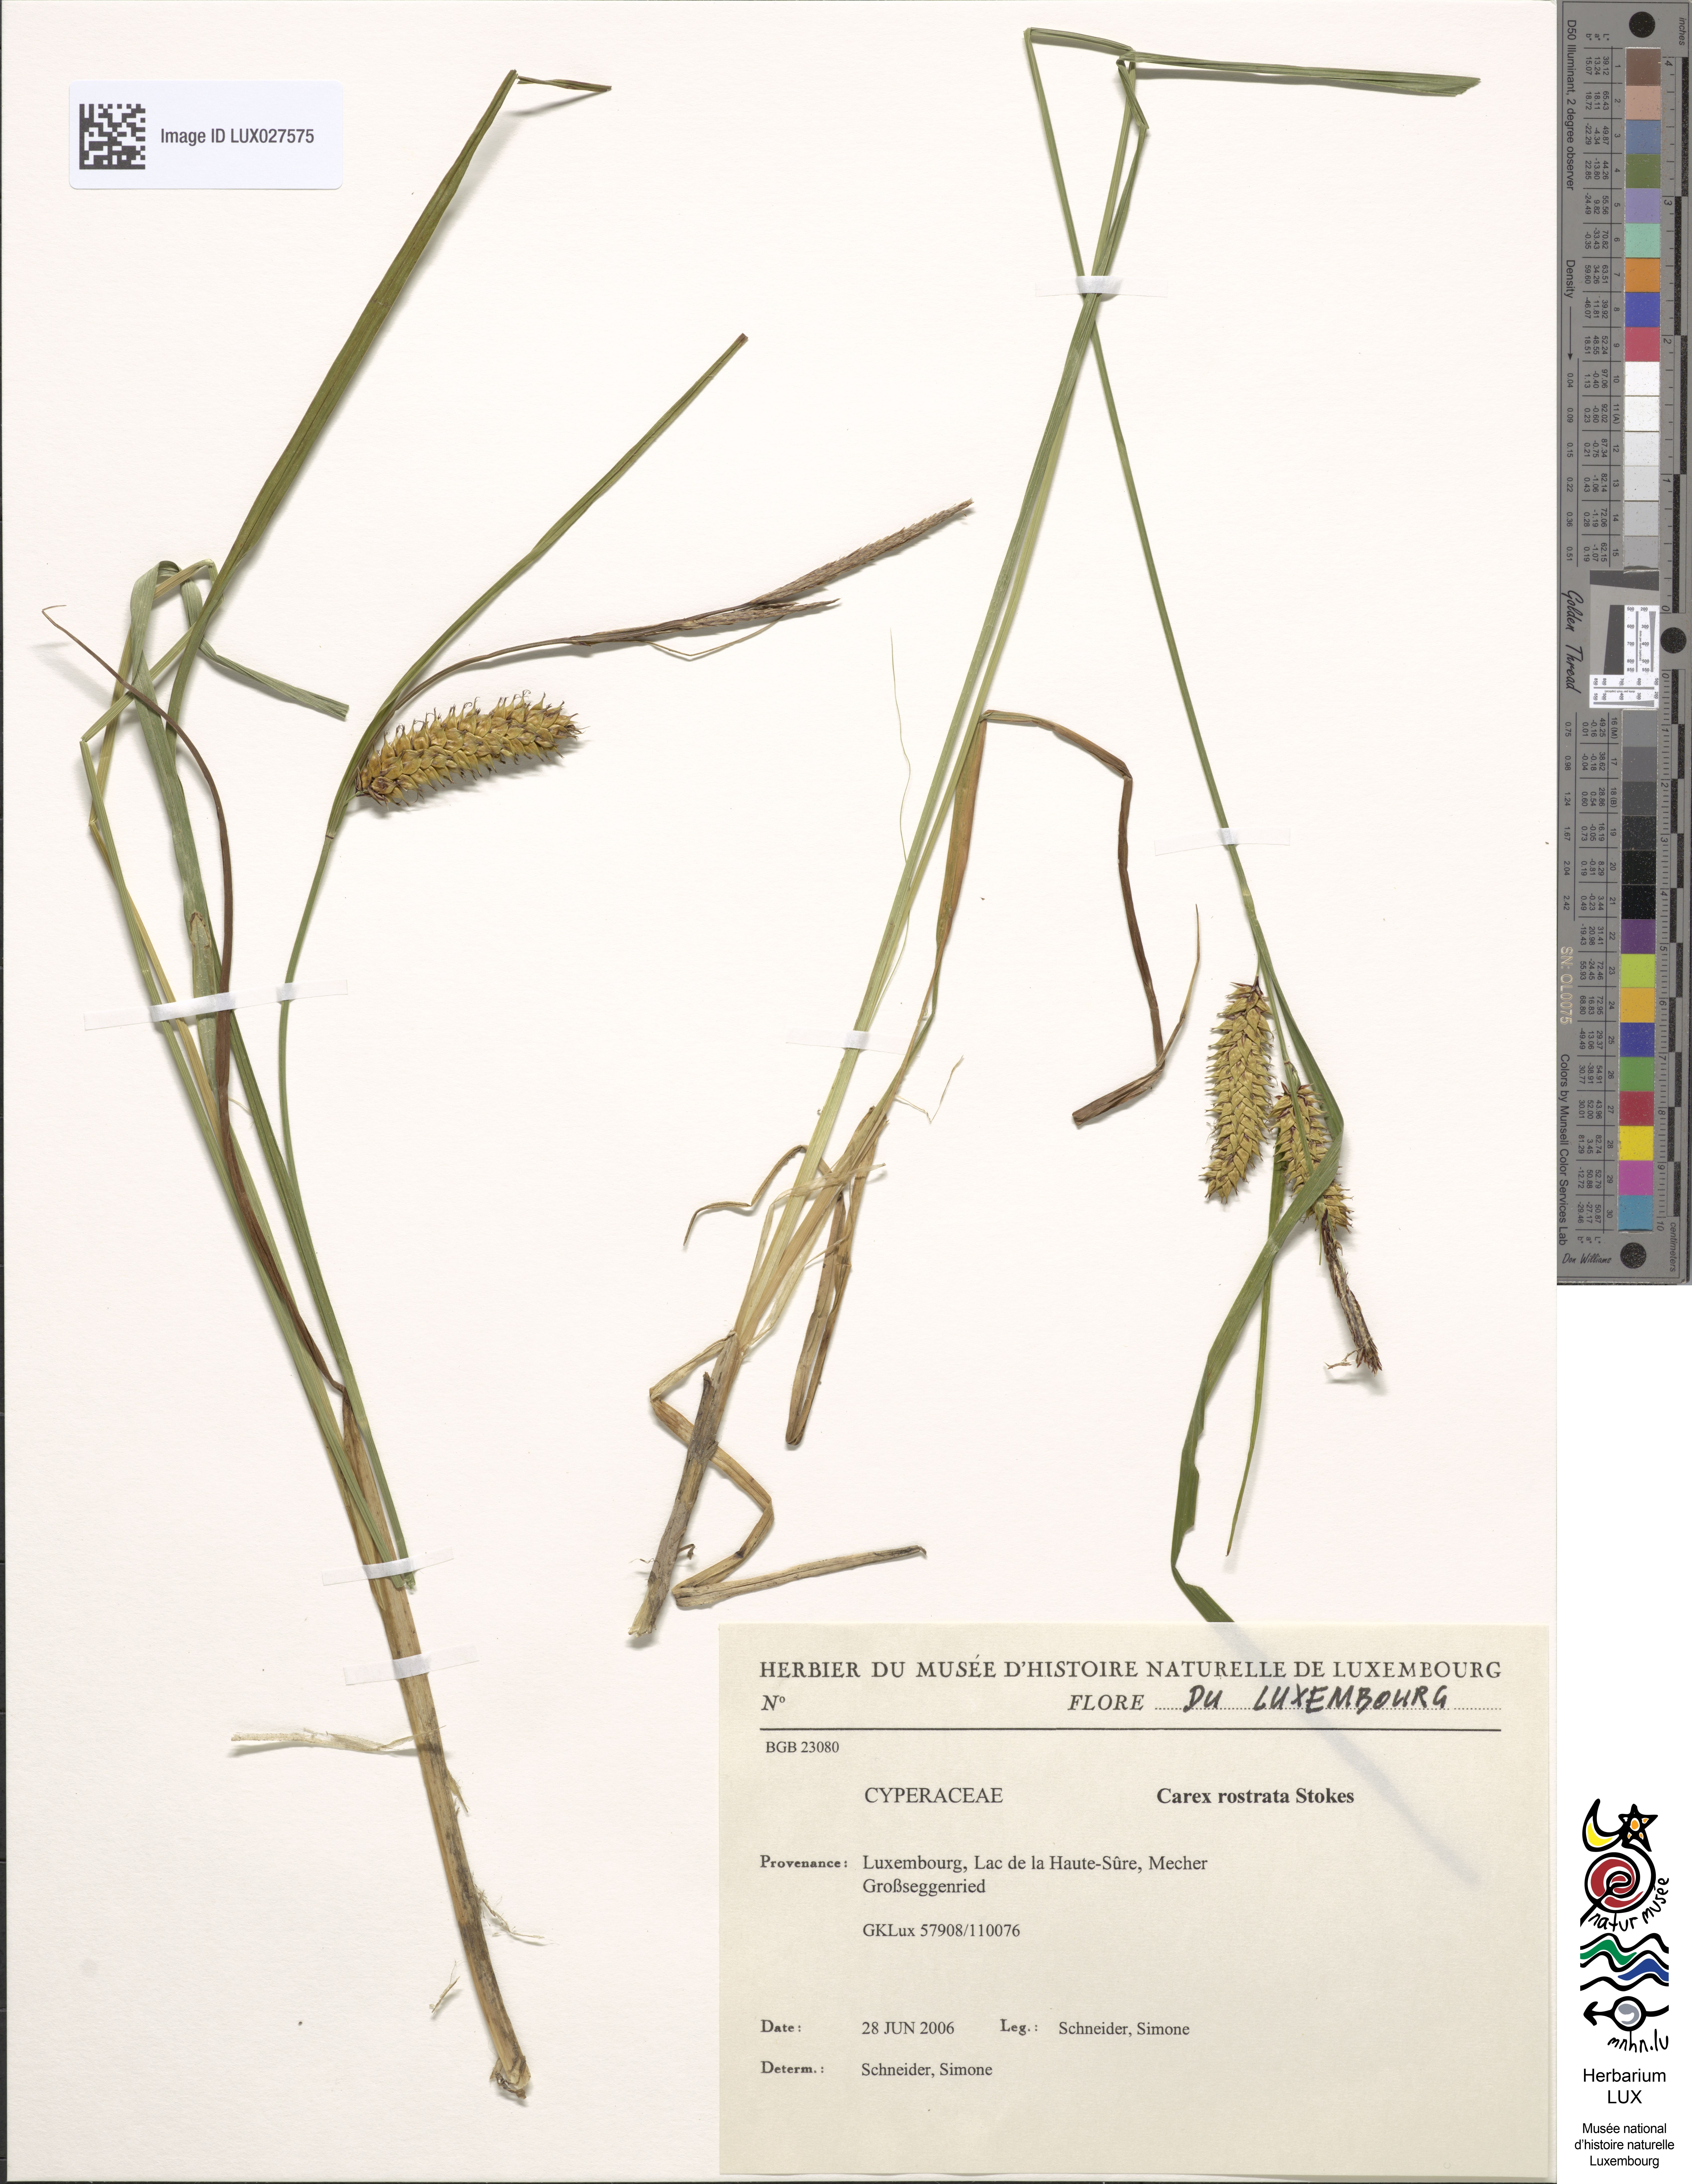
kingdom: Plantae
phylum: Tracheophyta
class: Liliopsida
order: Poales
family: Cyperaceae
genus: Carex
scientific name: Carex rostrata
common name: Bottle sedge
